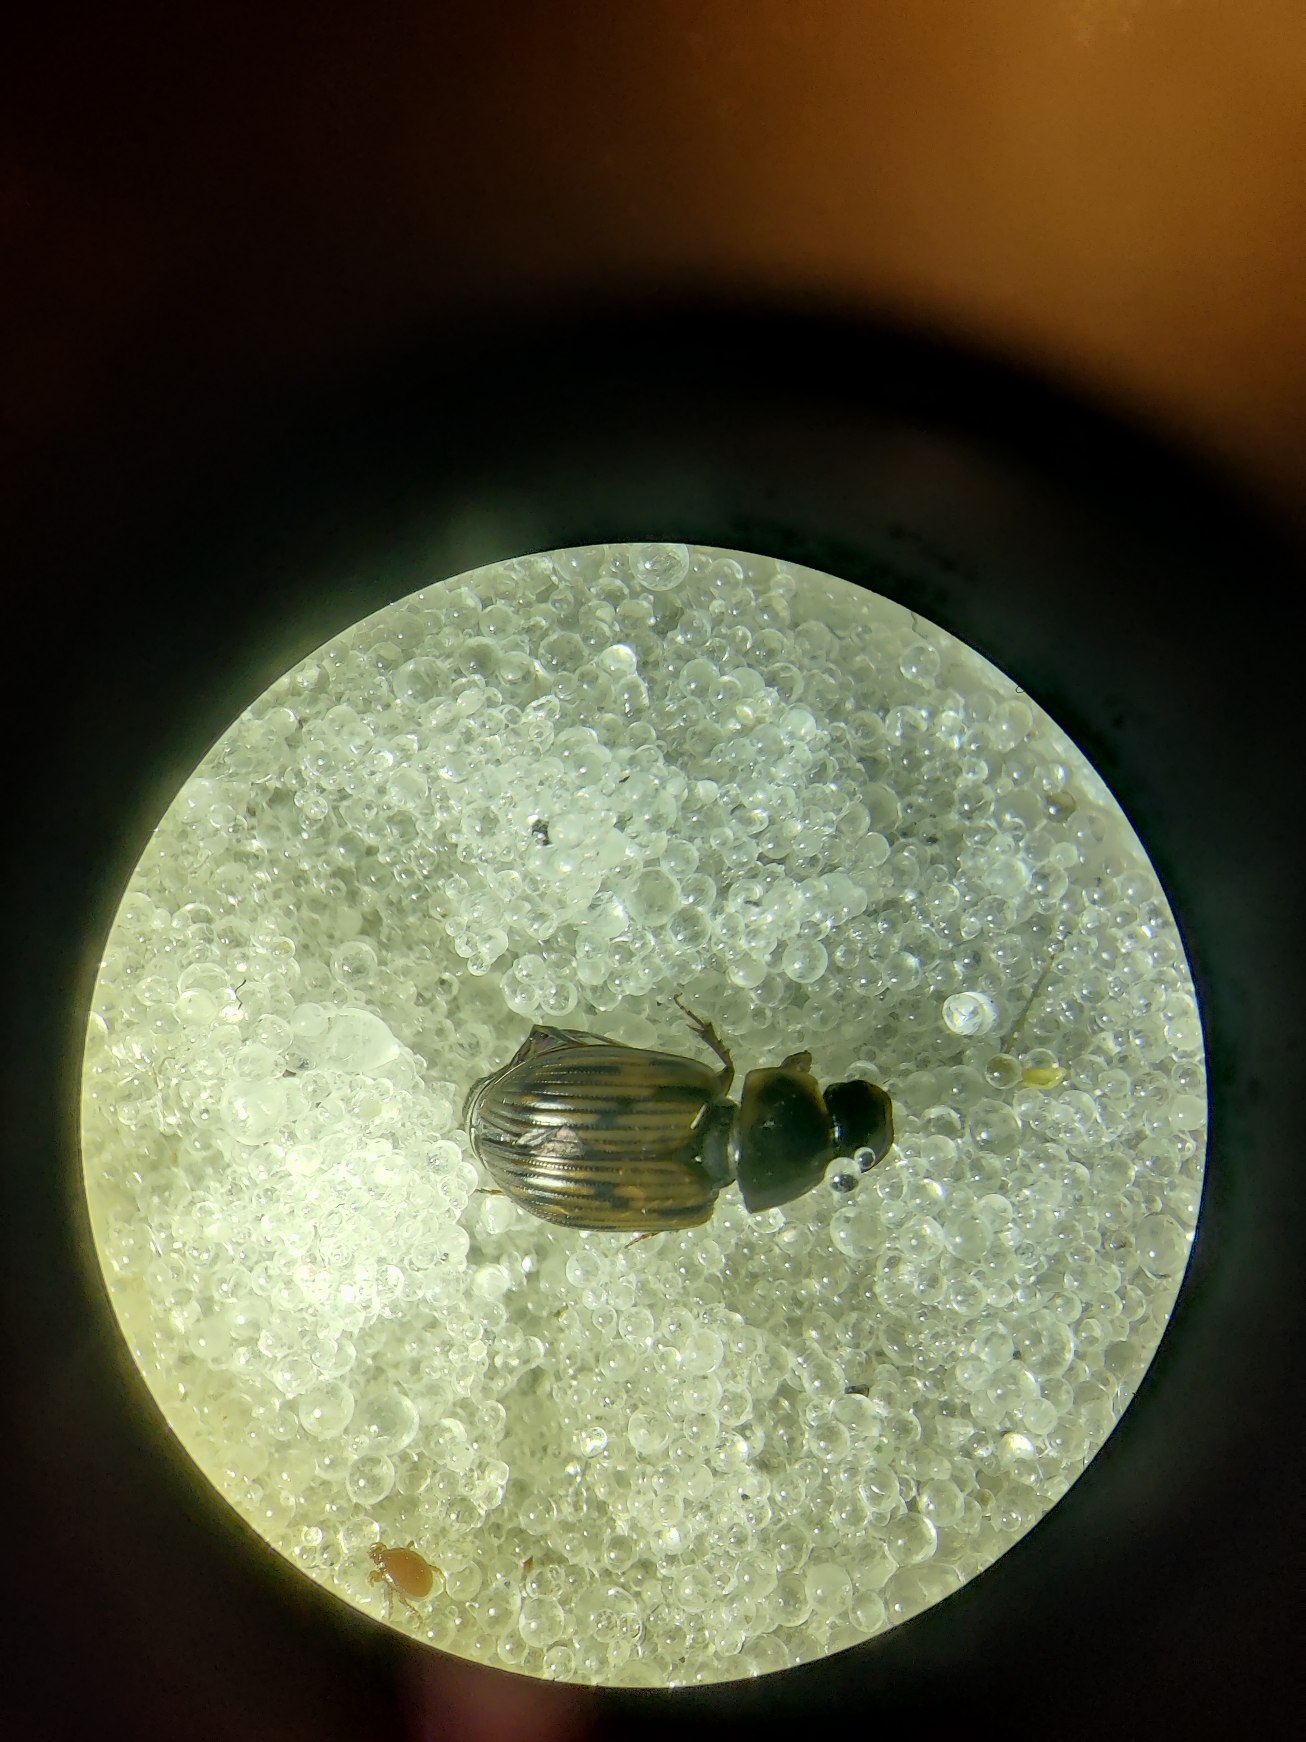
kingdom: Animalia
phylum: Arthropoda
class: Insecta
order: Coleoptera
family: Scarabaeidae
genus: Volinus
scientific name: Volinus sticticus
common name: Skovmøgbille
